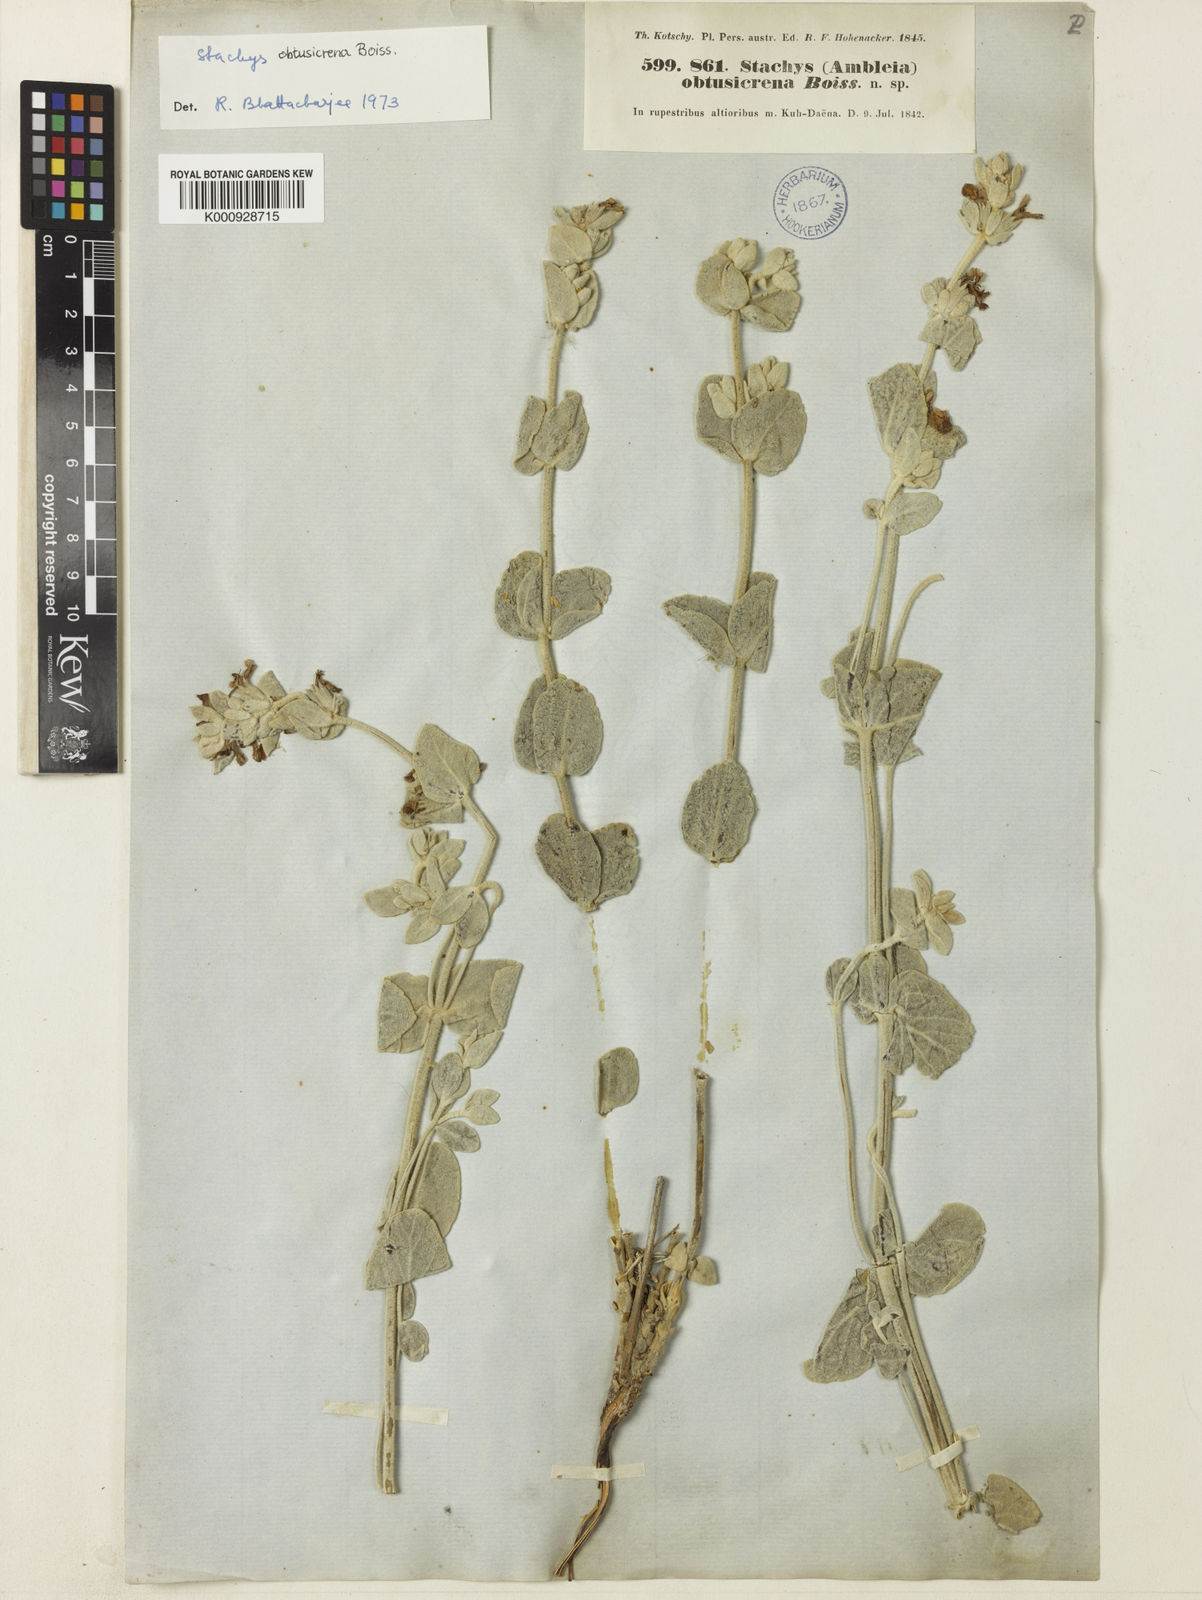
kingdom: Plantae
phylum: Tracheophyta
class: Magnoliopsida
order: Lamiales
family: Lamiaceae
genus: Stachys
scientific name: Stachys obtusicrena
